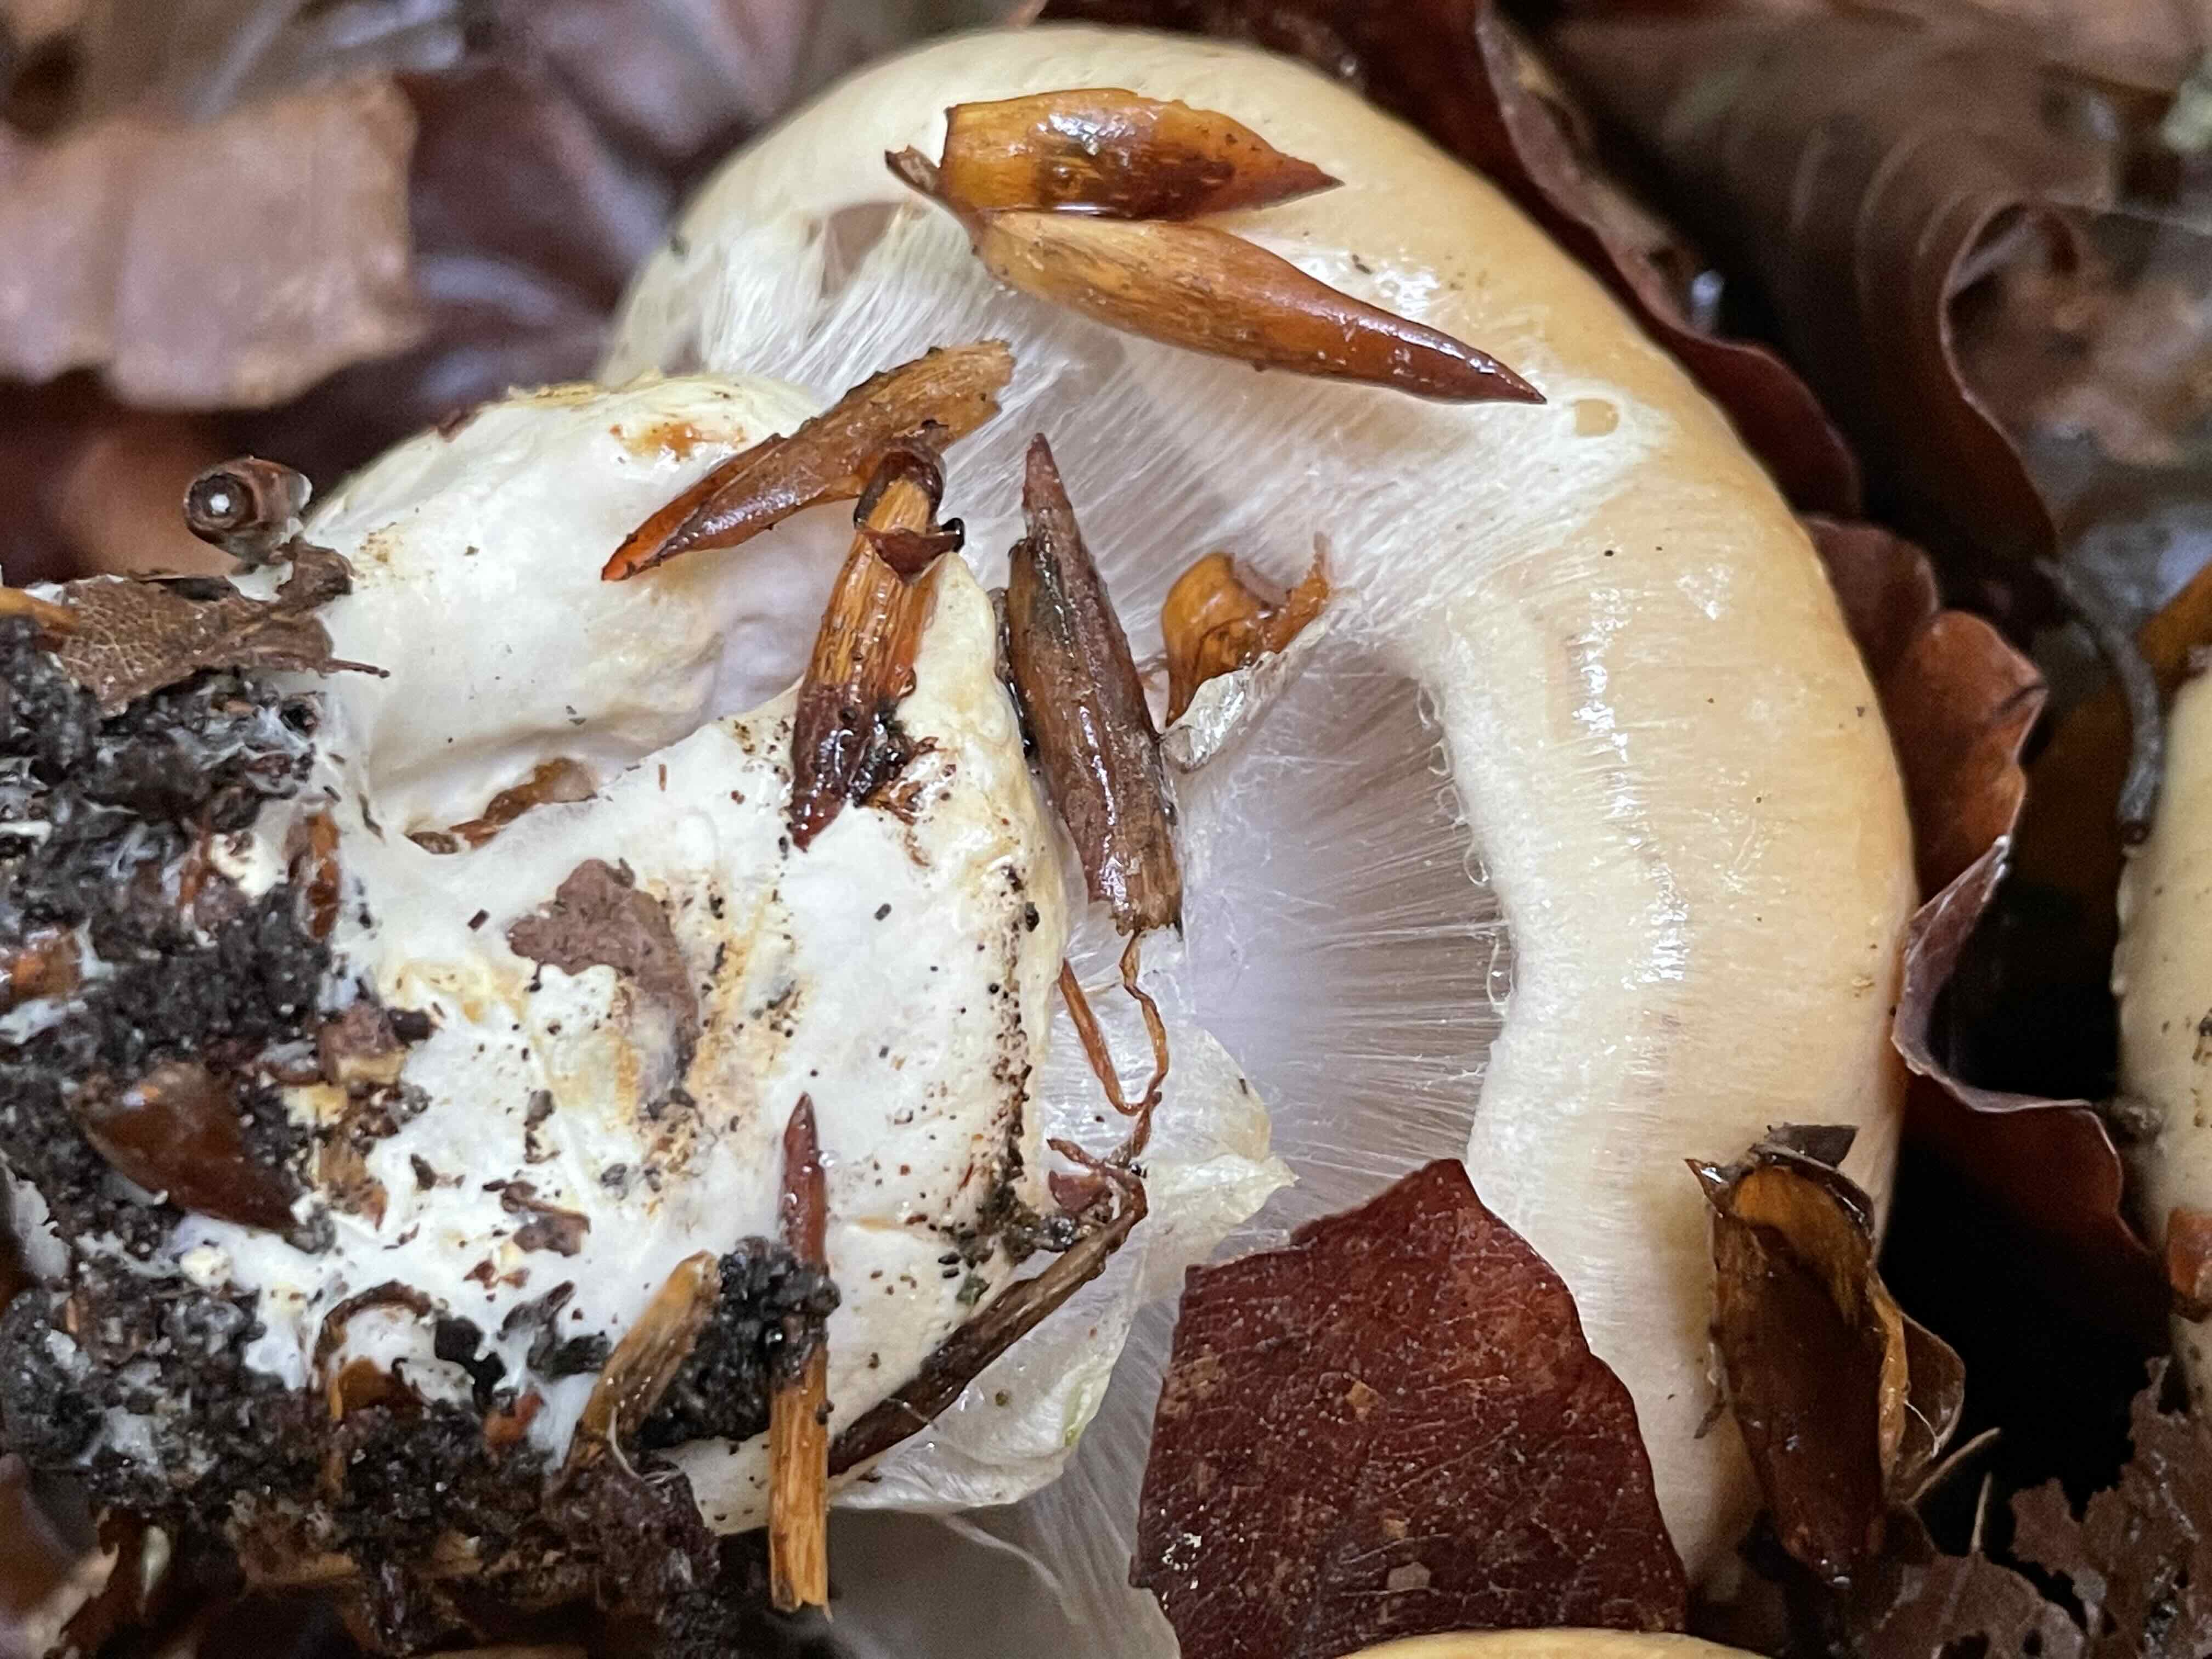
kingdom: Fungi
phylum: Basidiomycota
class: Agaricomycetes
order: Agaricales
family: Cortinariaceae
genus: Cortinarius
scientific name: Cortinarius foetens
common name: stribet slørhat
